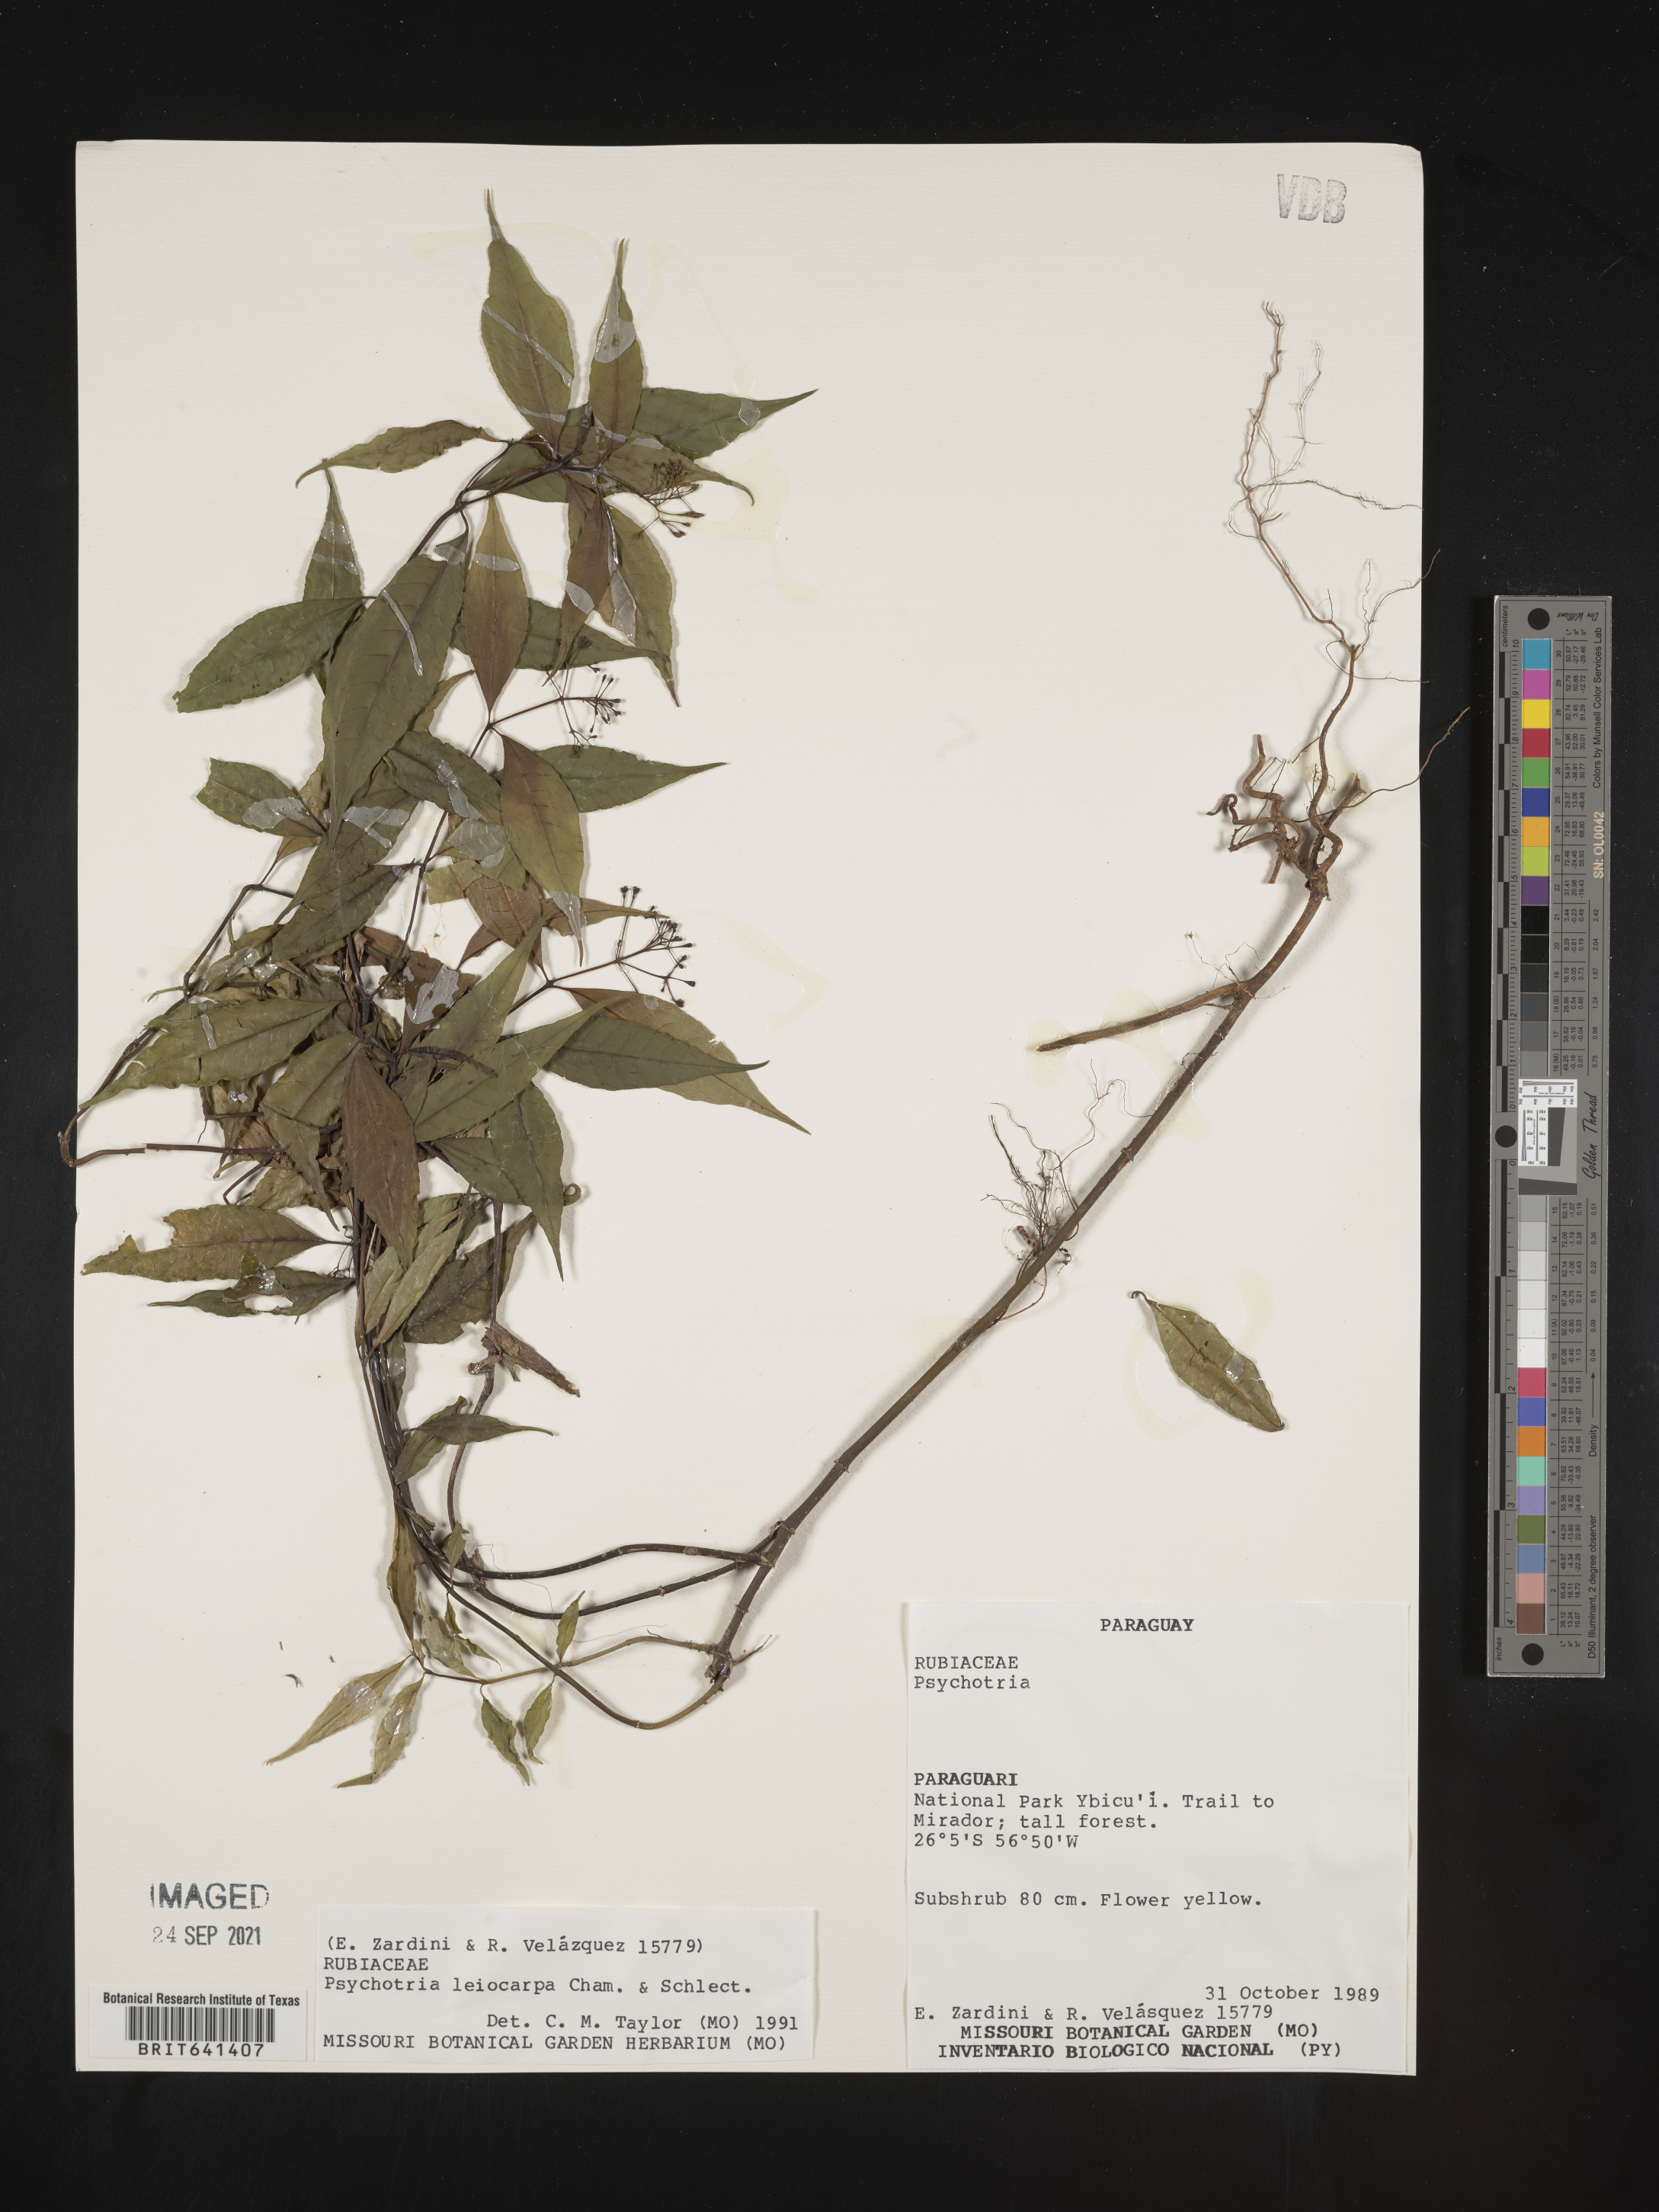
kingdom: Plantae
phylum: Tracheophyta
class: Magnoliopsida
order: Gentianales
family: Rubiaceae
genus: Psychotria
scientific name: Psychotria
